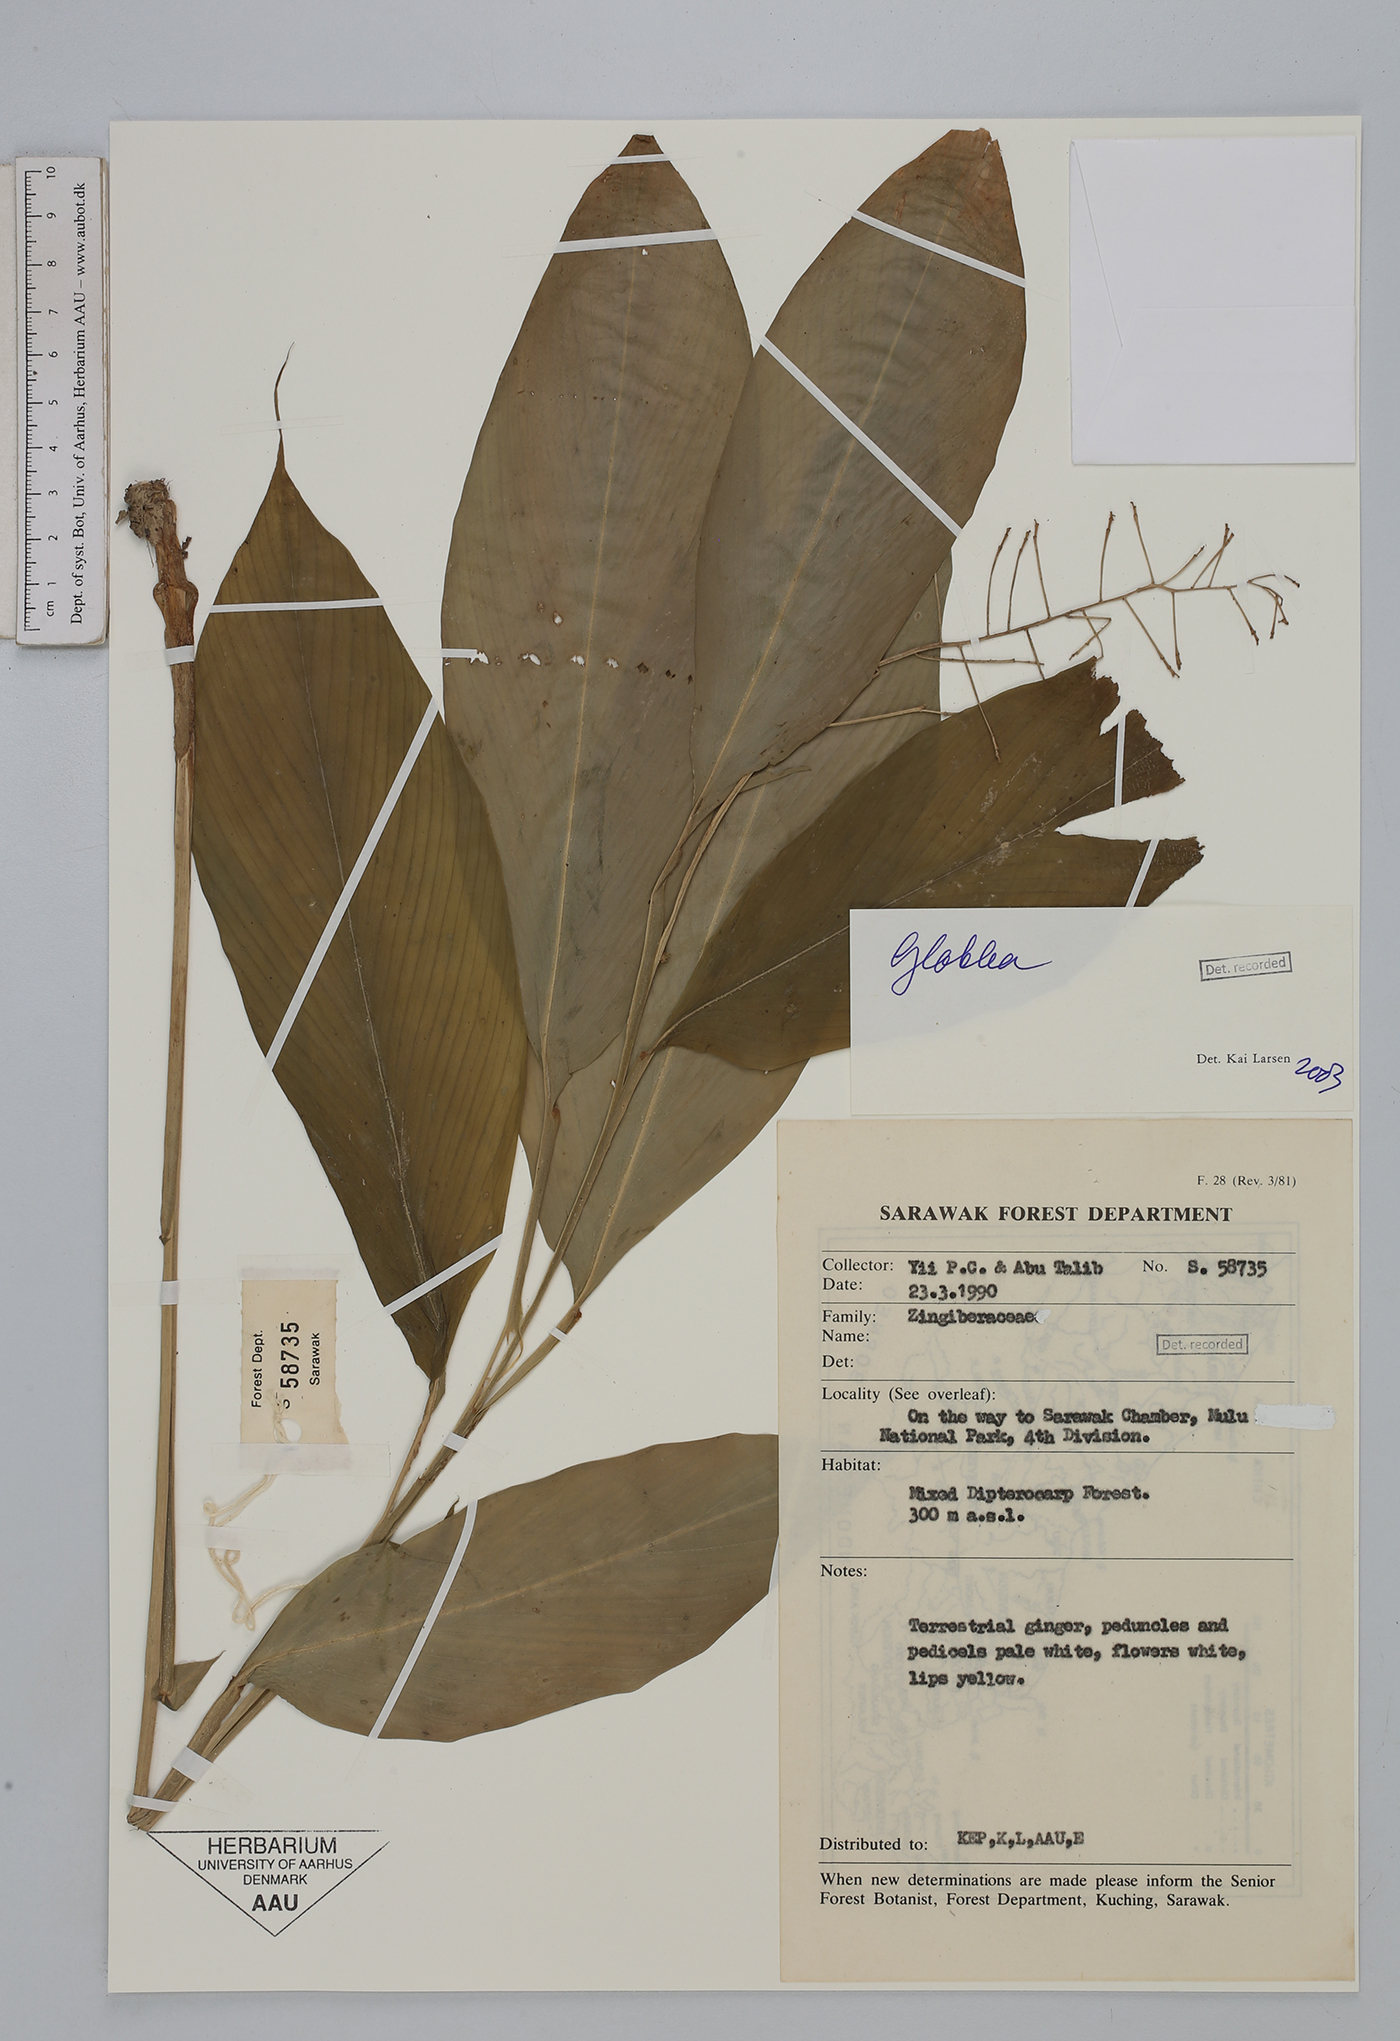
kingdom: Plantae
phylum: Tracheophyta
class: Liliopsida
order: Zingiberales
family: Zingiberaceae
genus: Globba
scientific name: Globba
